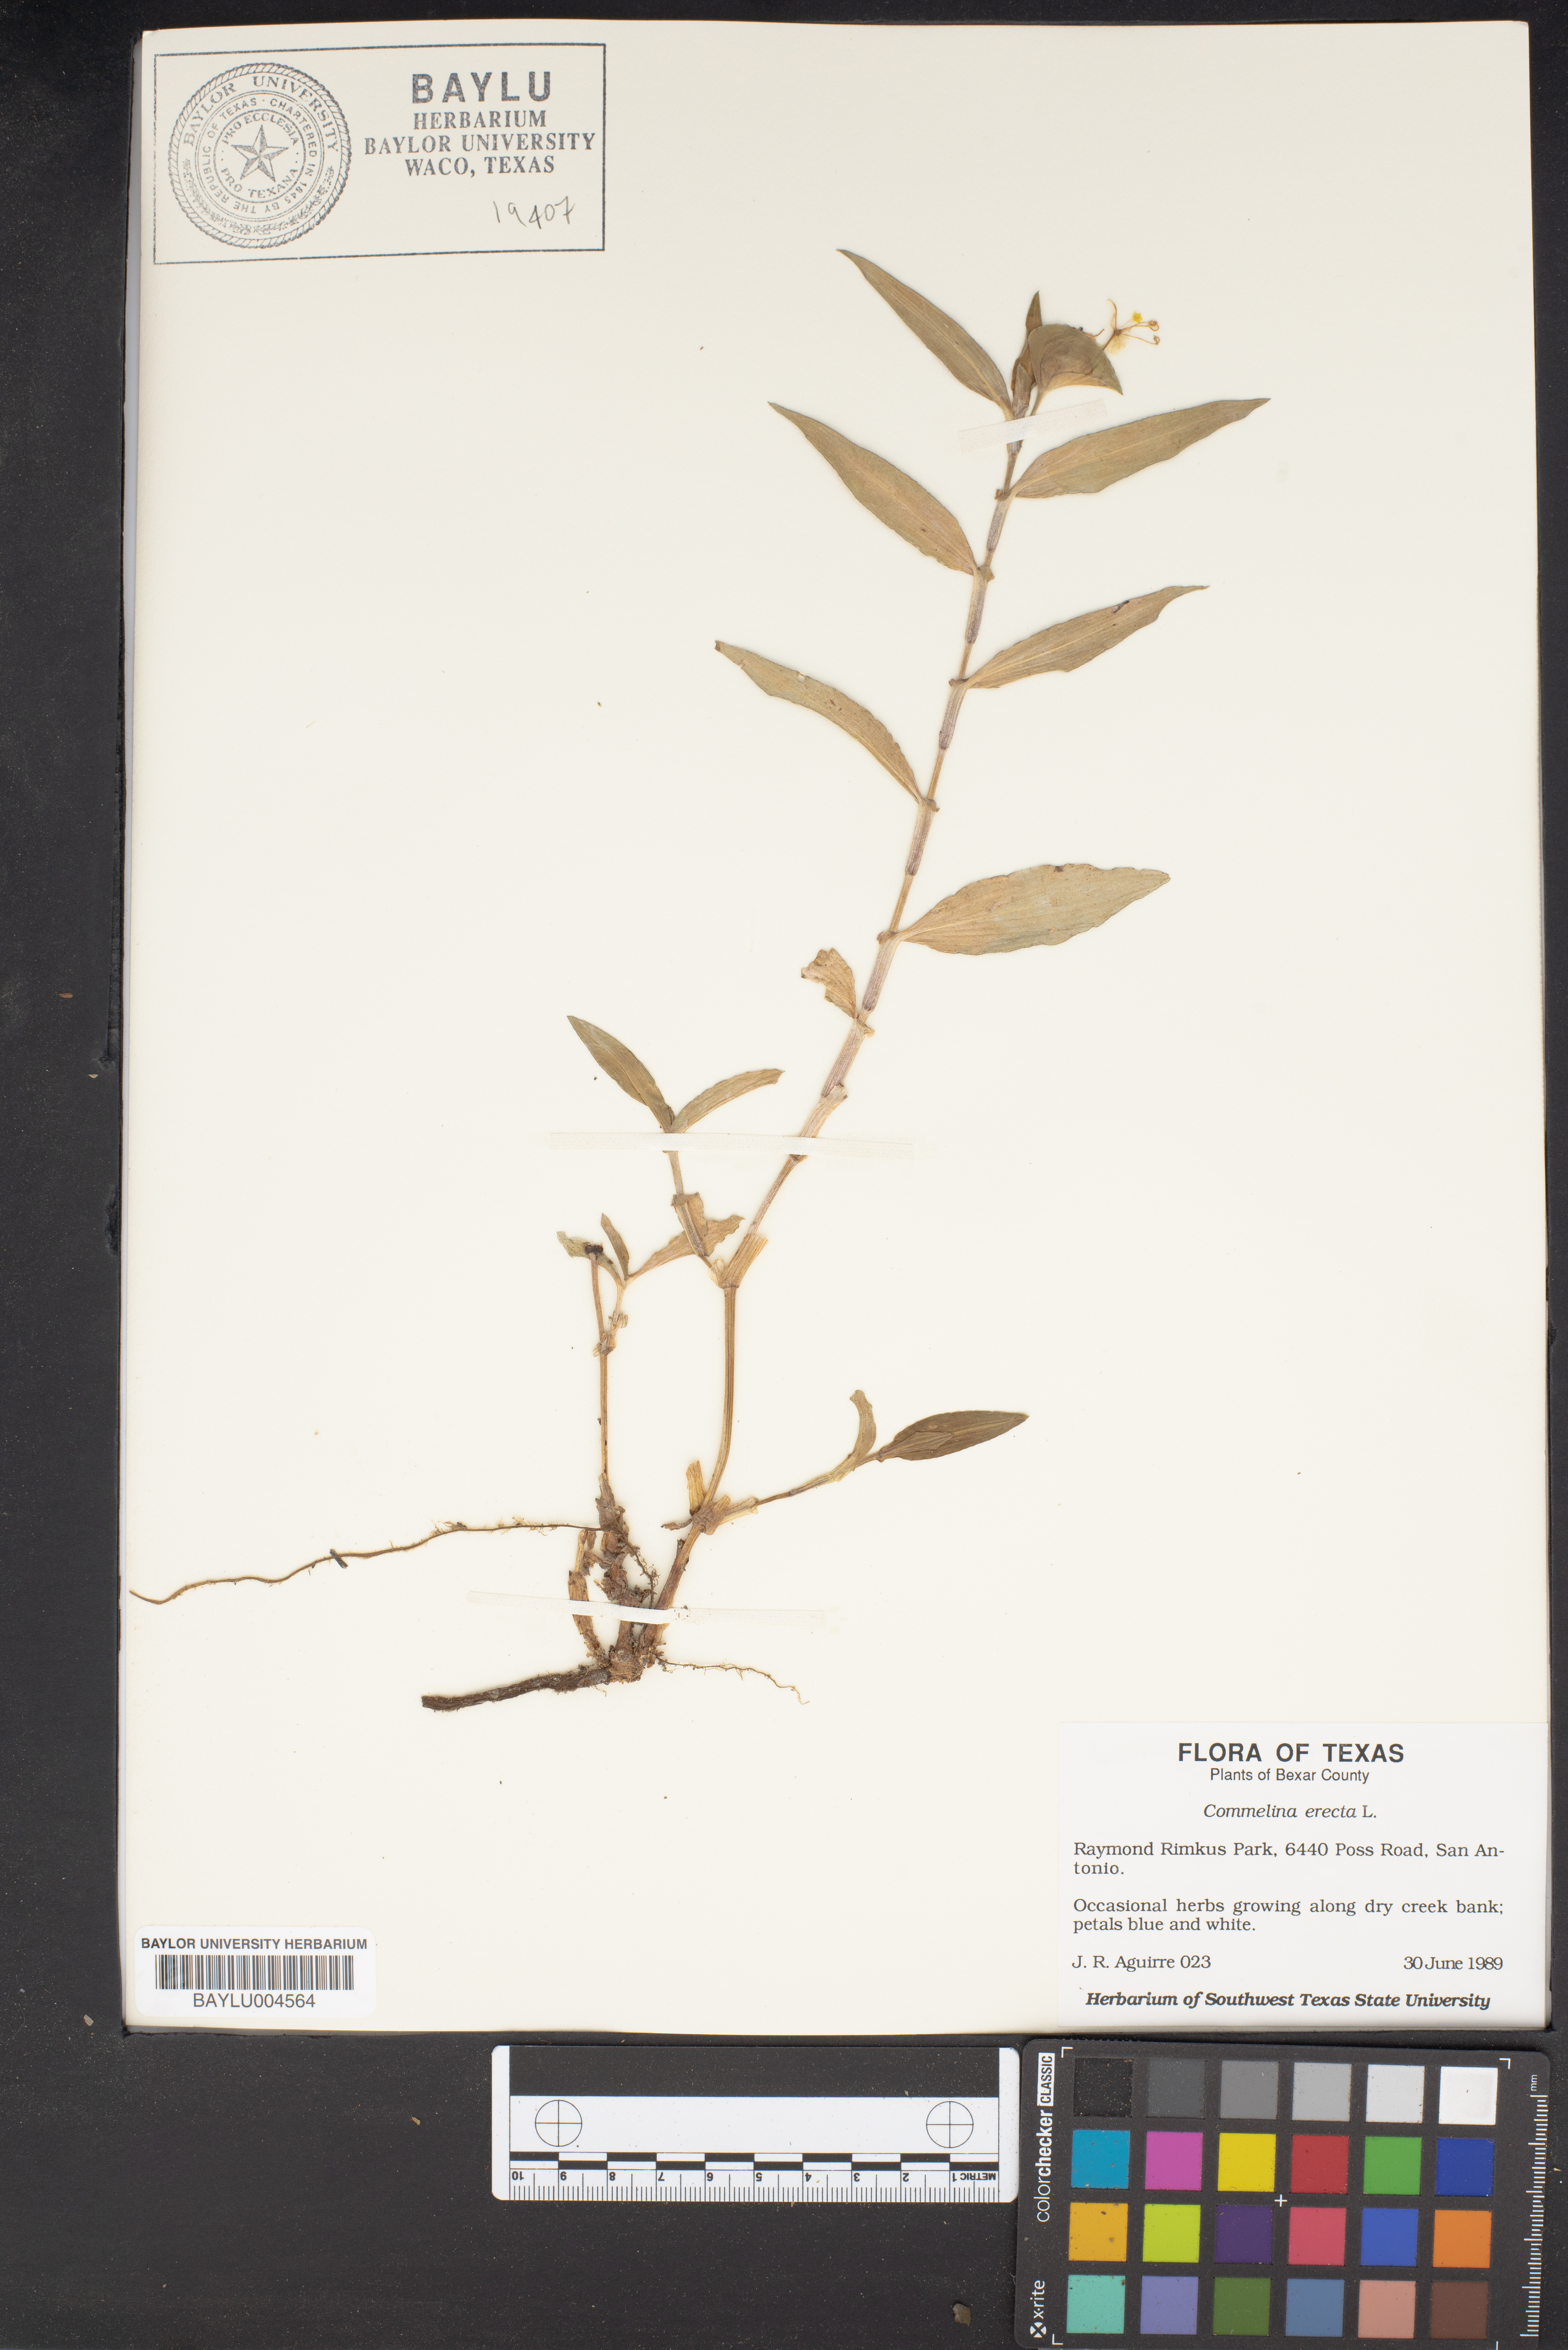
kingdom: Plantae
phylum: Tracheophyta
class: Liliopsida
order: Commelinales
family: Commelinaceae
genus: Commelina
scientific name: Commelina erecta
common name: Blousel blommetjie
